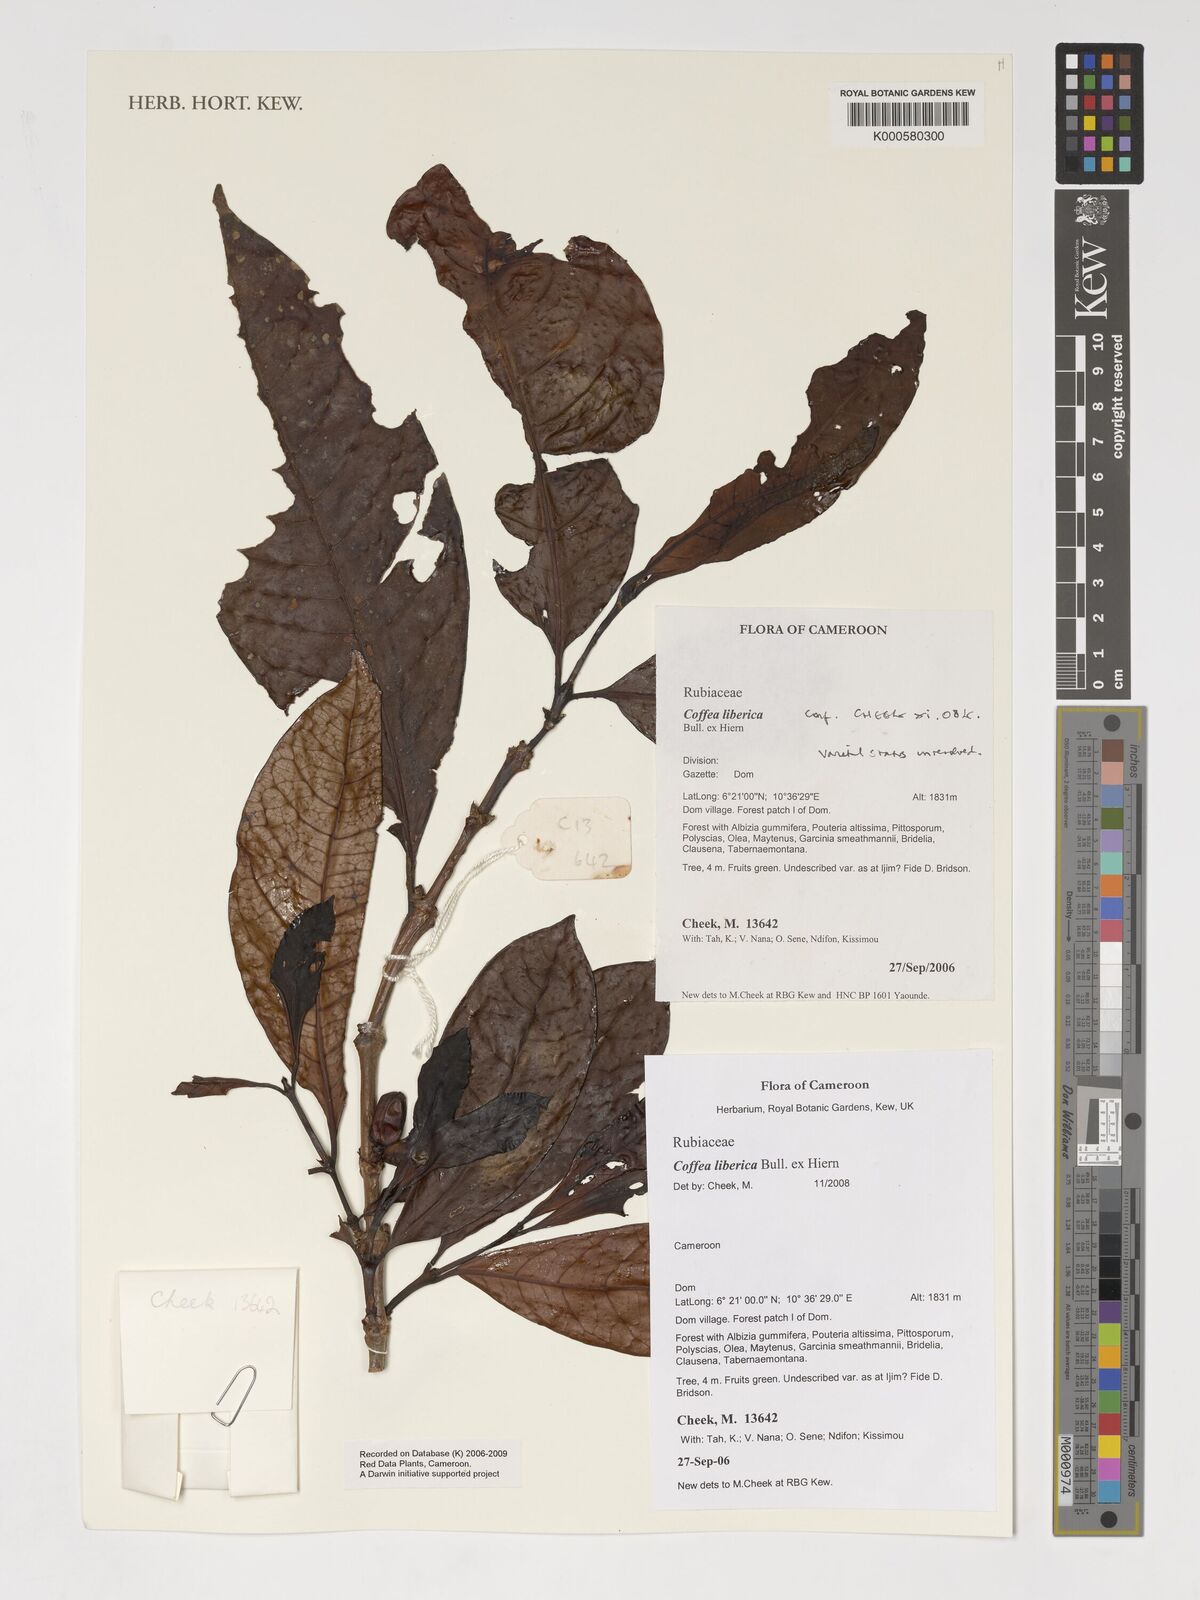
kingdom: Plantae
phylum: Tracheophyta
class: Magnoliopsida
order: Gentianales
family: Rubiaceae
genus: Coffea
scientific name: Coffea
